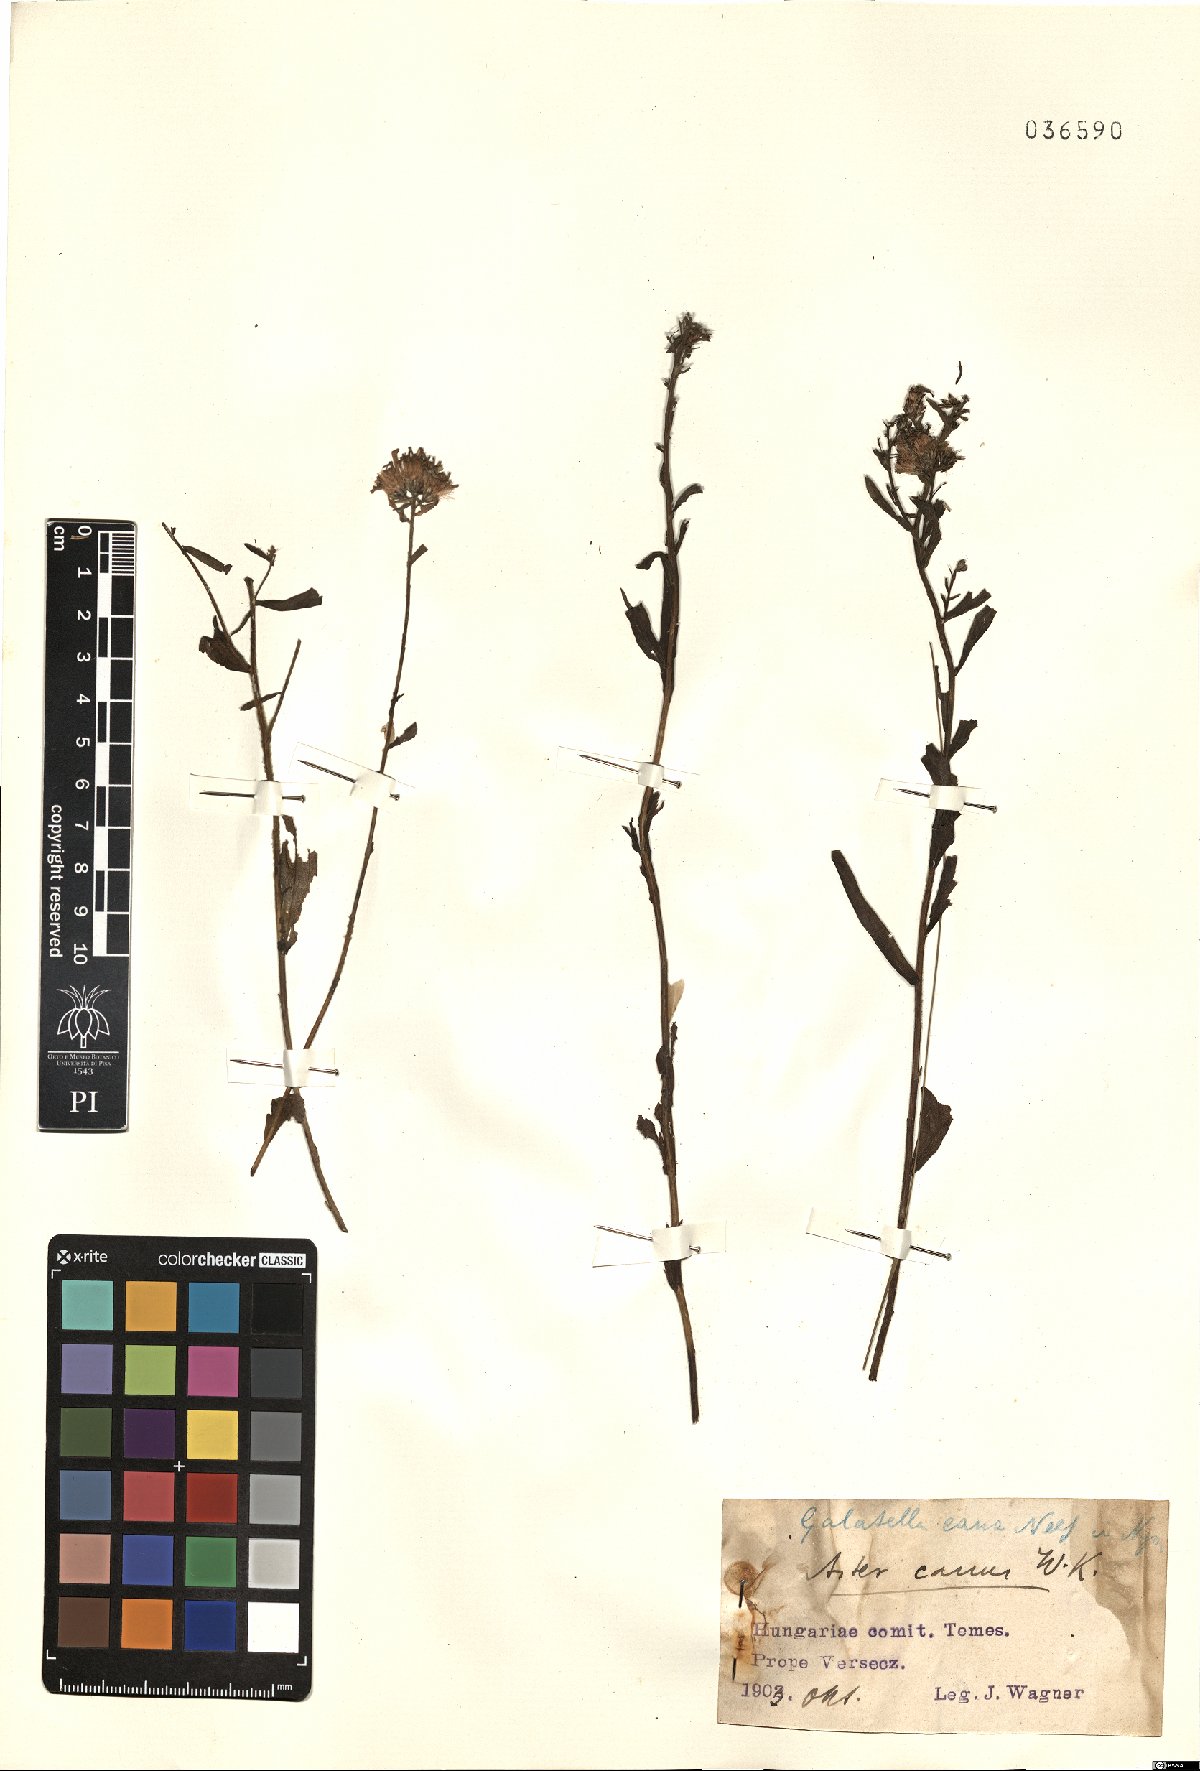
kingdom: Plantae
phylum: Tracheophyta
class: Magnoliopsida
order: Asterales
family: Asteraceae
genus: Galatella
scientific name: Galatella cana
